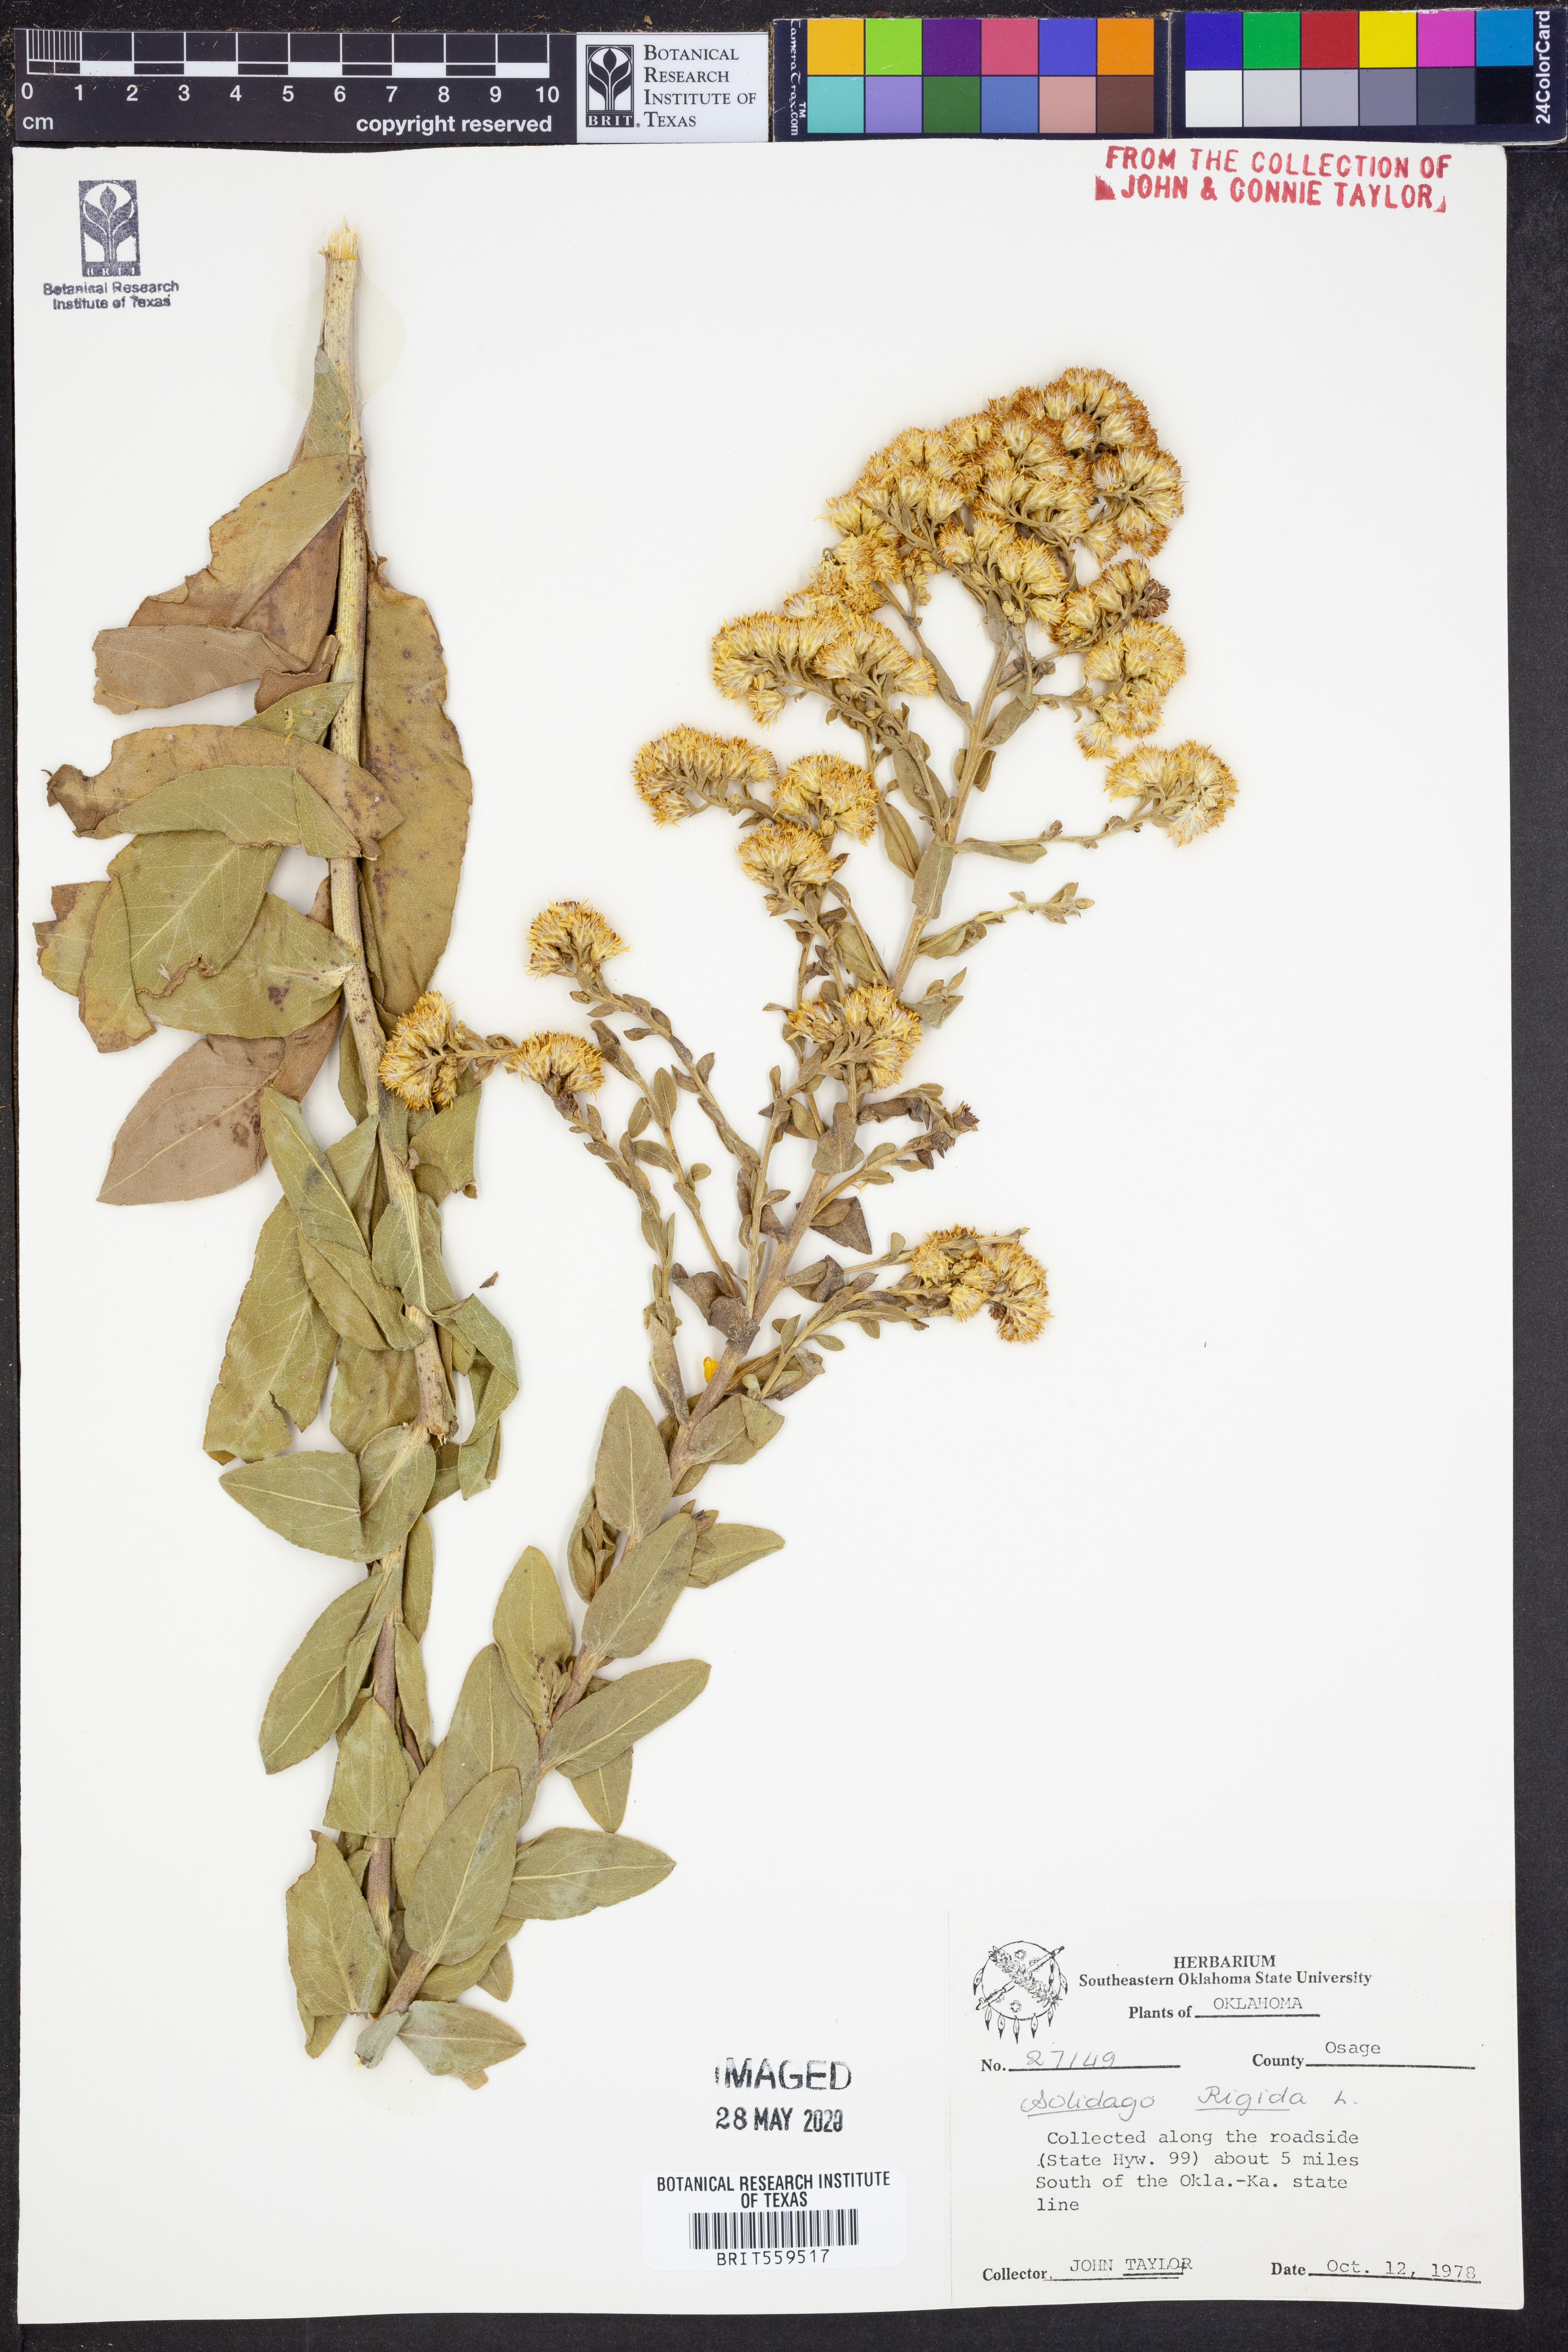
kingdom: Plantae
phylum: Tracheophyta
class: Magnoliopsida
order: Asterales
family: Asteraceae
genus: Solidago
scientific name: Solidago rigida
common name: Rigid goldenrod
